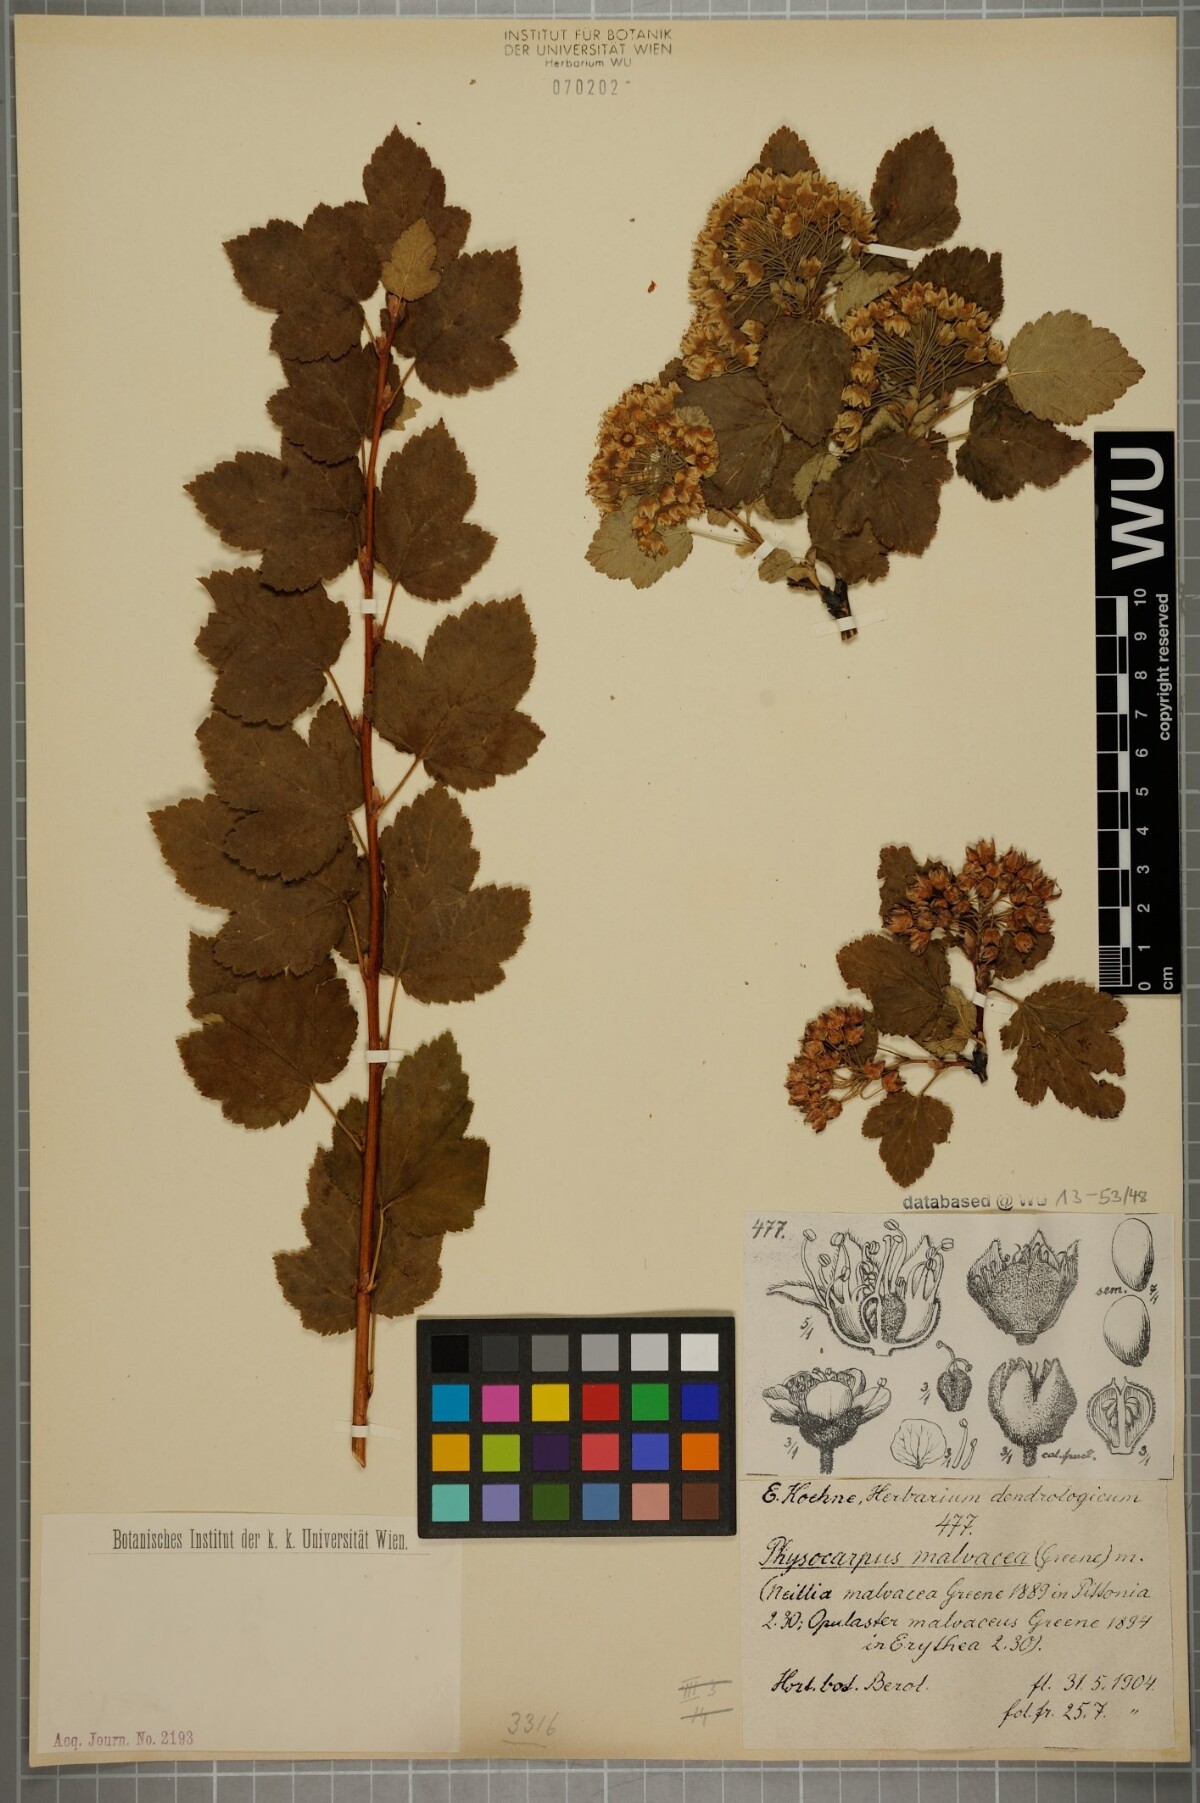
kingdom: Plantae
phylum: Tracheophyta
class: Magnoliopsida
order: Rosales
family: Rosaceae
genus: Physocarpus
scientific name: Physocarpus malvaceus
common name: Mallow ninebark
